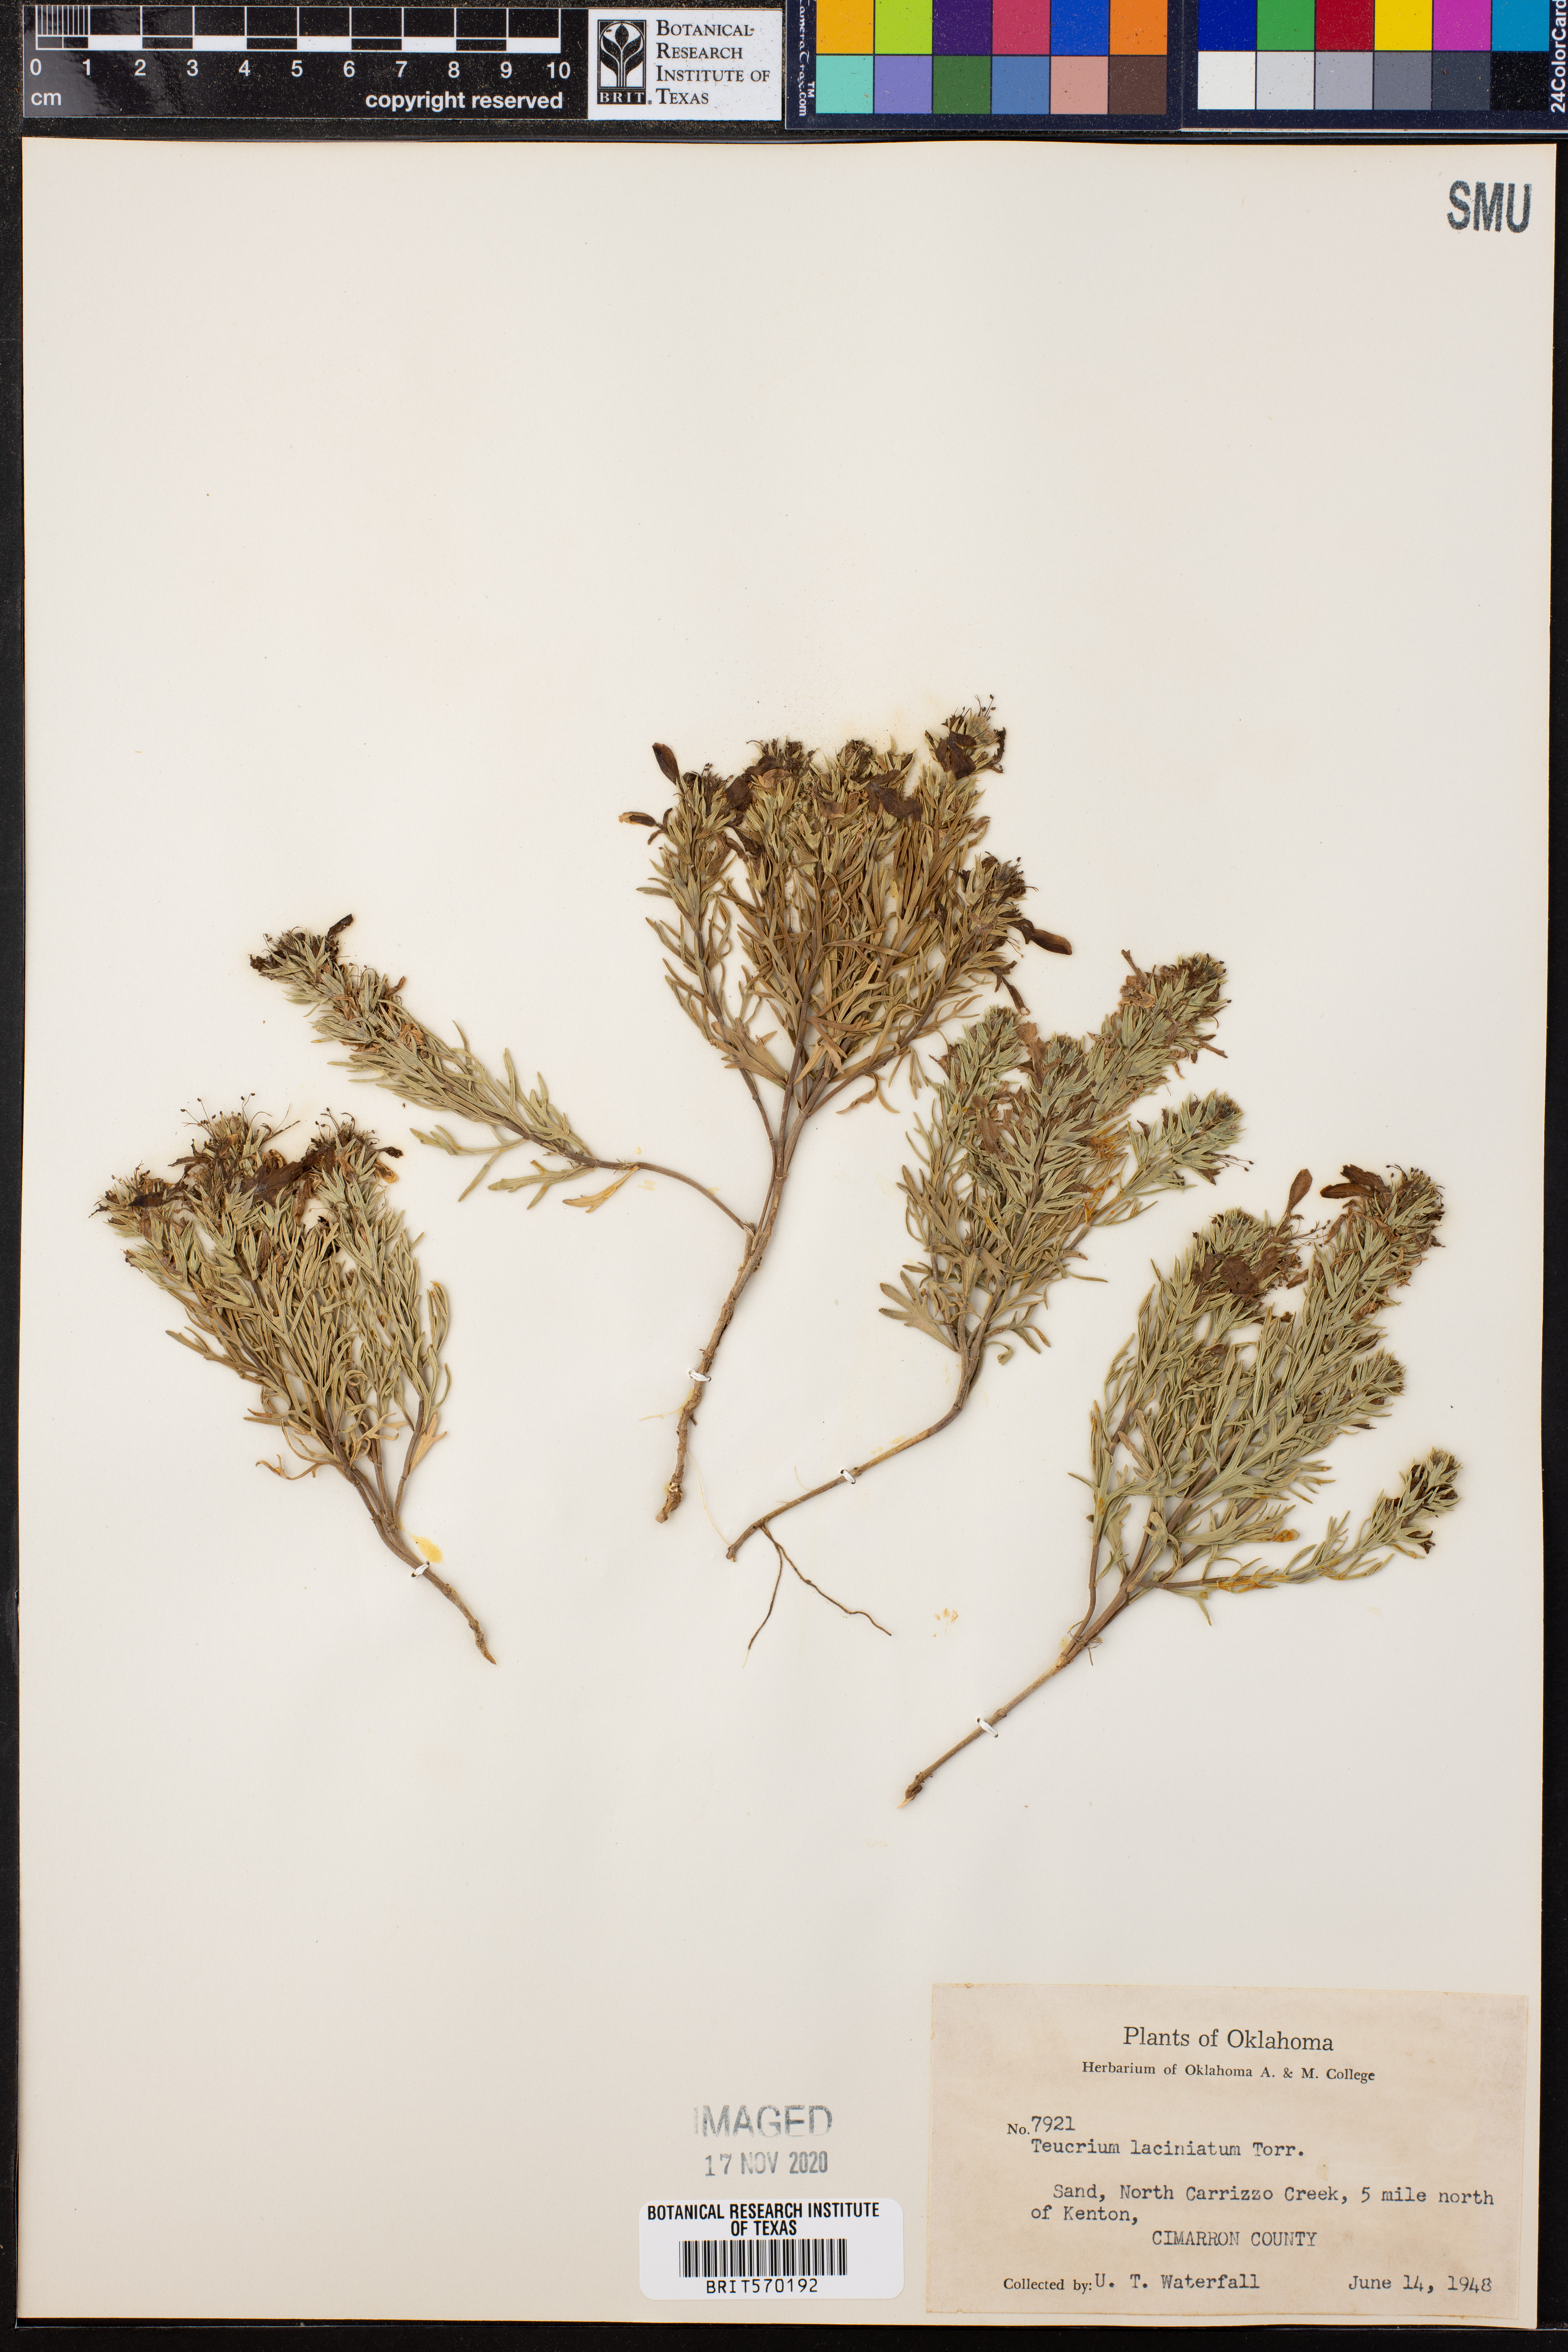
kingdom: Plantae
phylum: Tracheophyta
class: Magnoliopsida
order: Lamiales
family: Lamiaceae
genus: Teucrium
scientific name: Teucrium laciniatum
